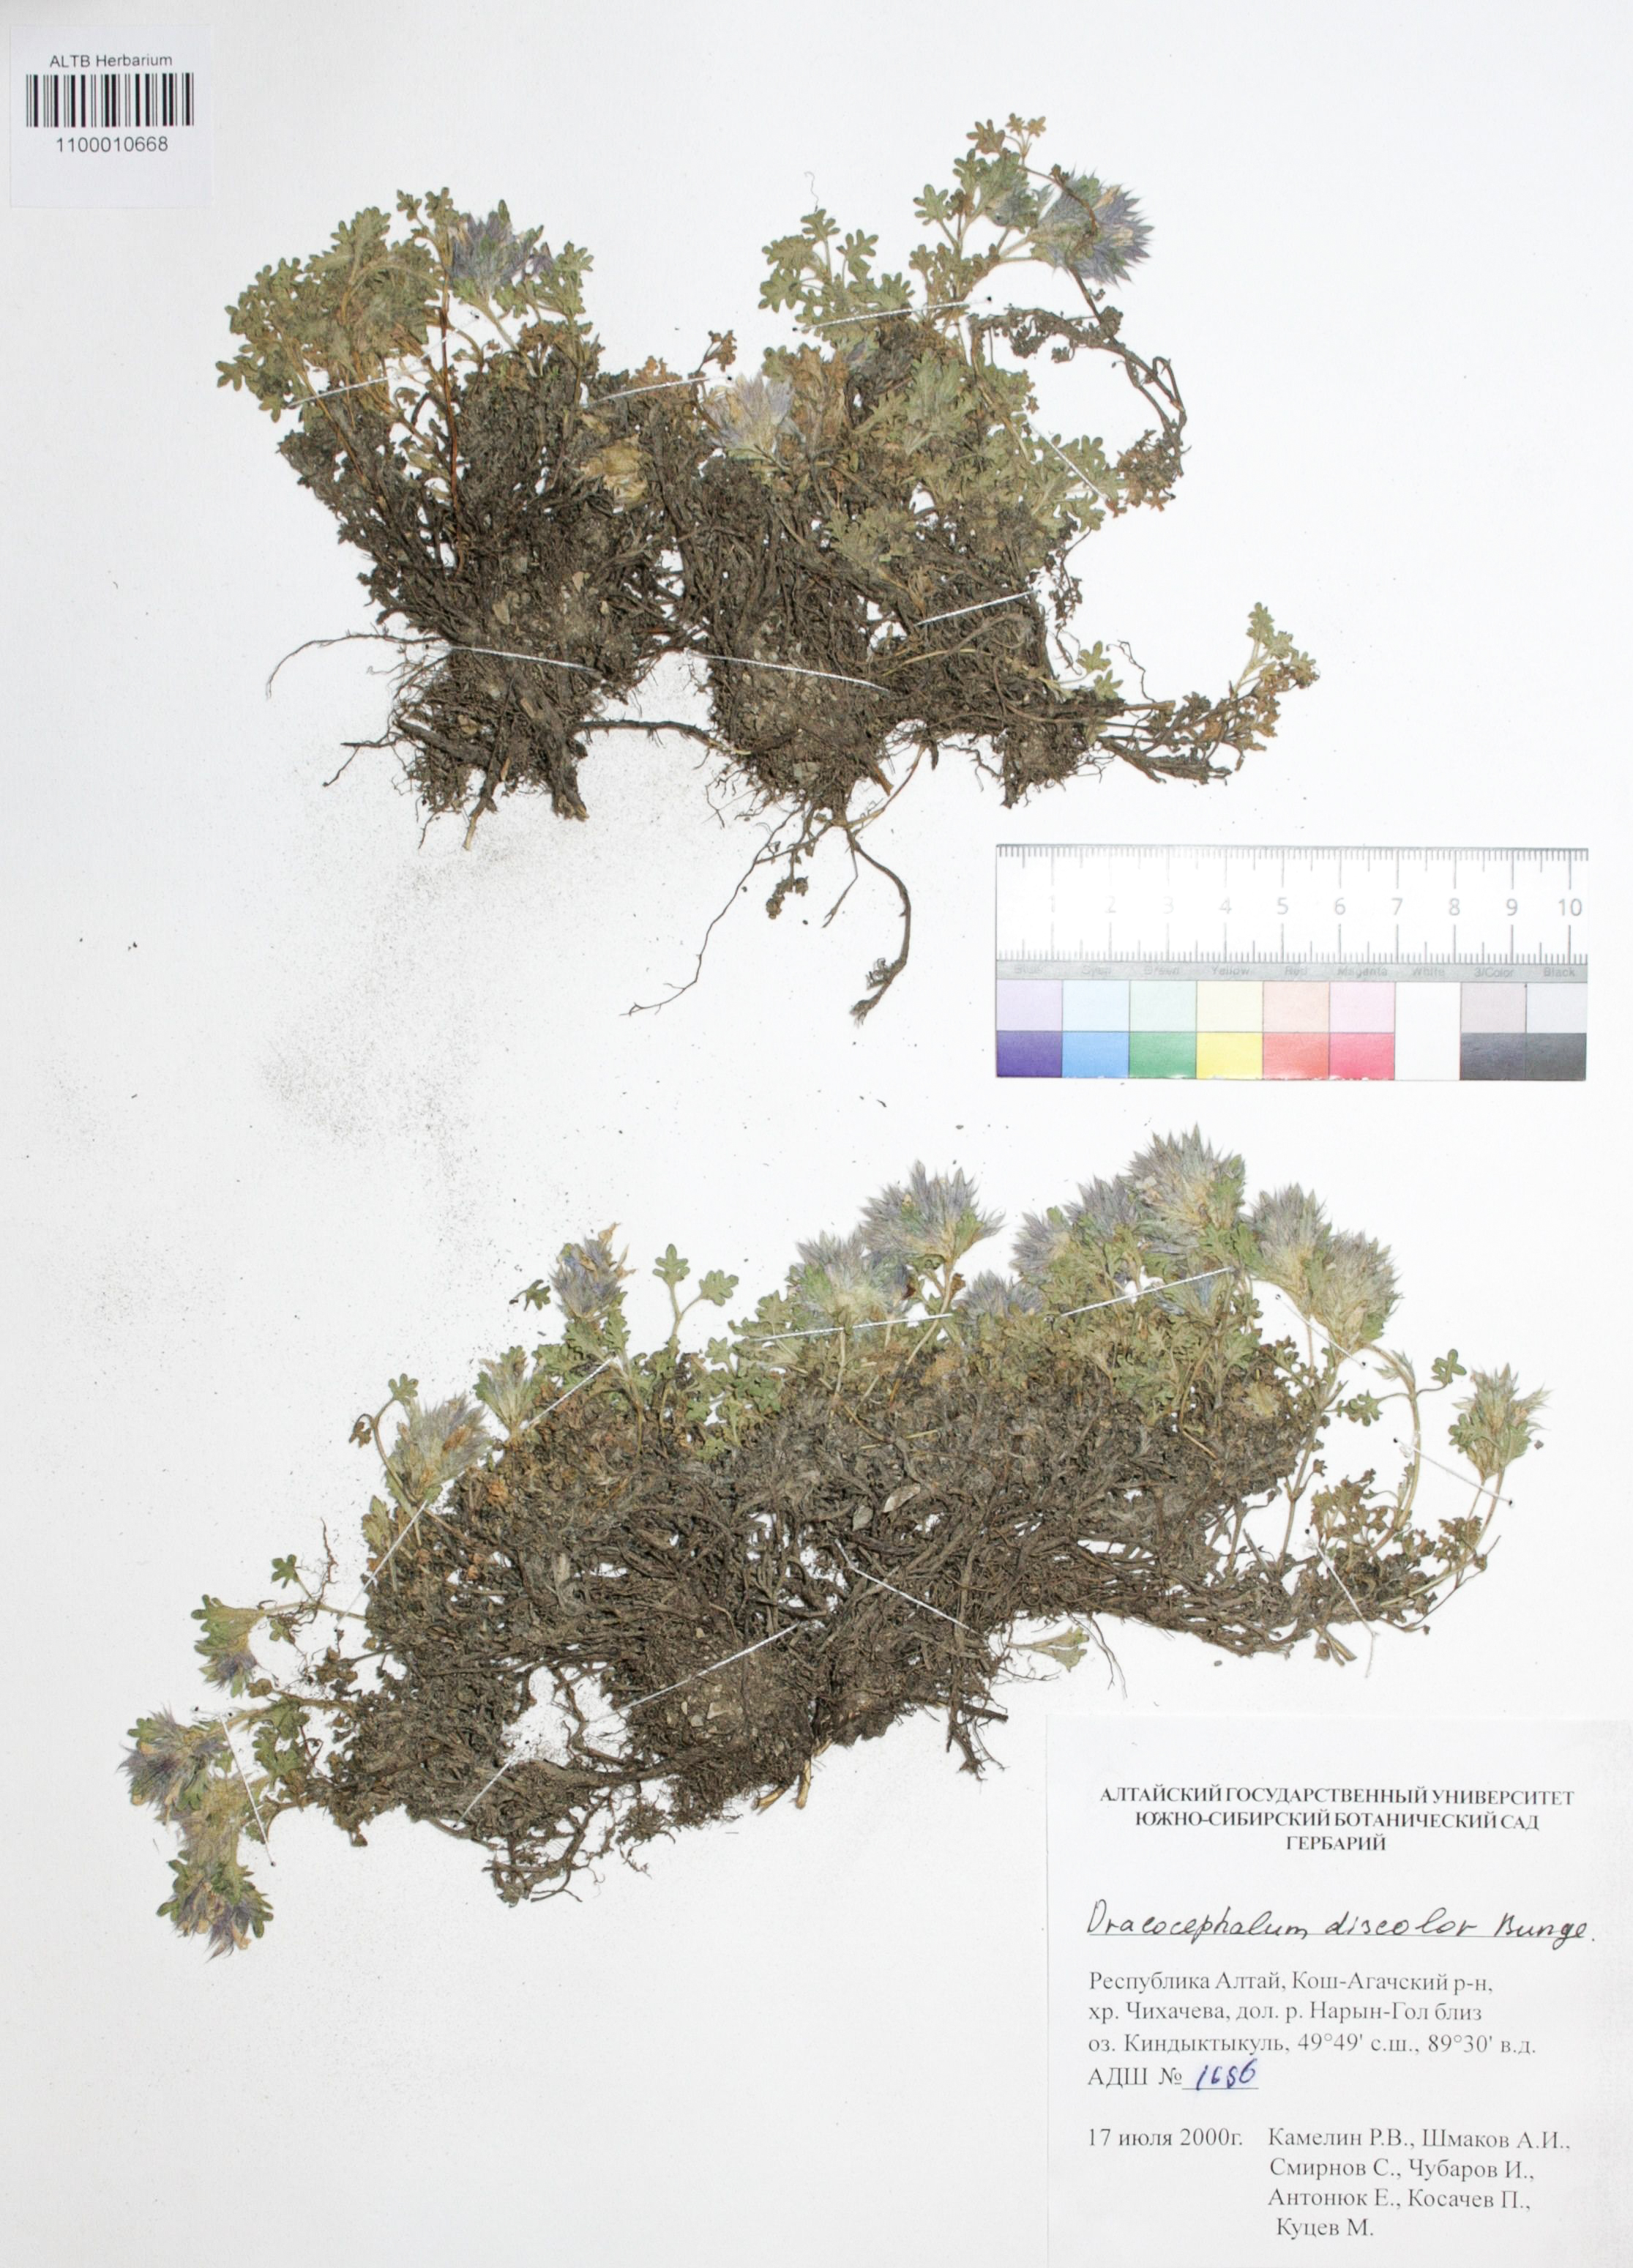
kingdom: Plantae
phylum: Tracheophyta
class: Magnoliopsida
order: Lamiales
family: Lamiaceae
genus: Dracocephalum
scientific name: Dracocephalum discolor
